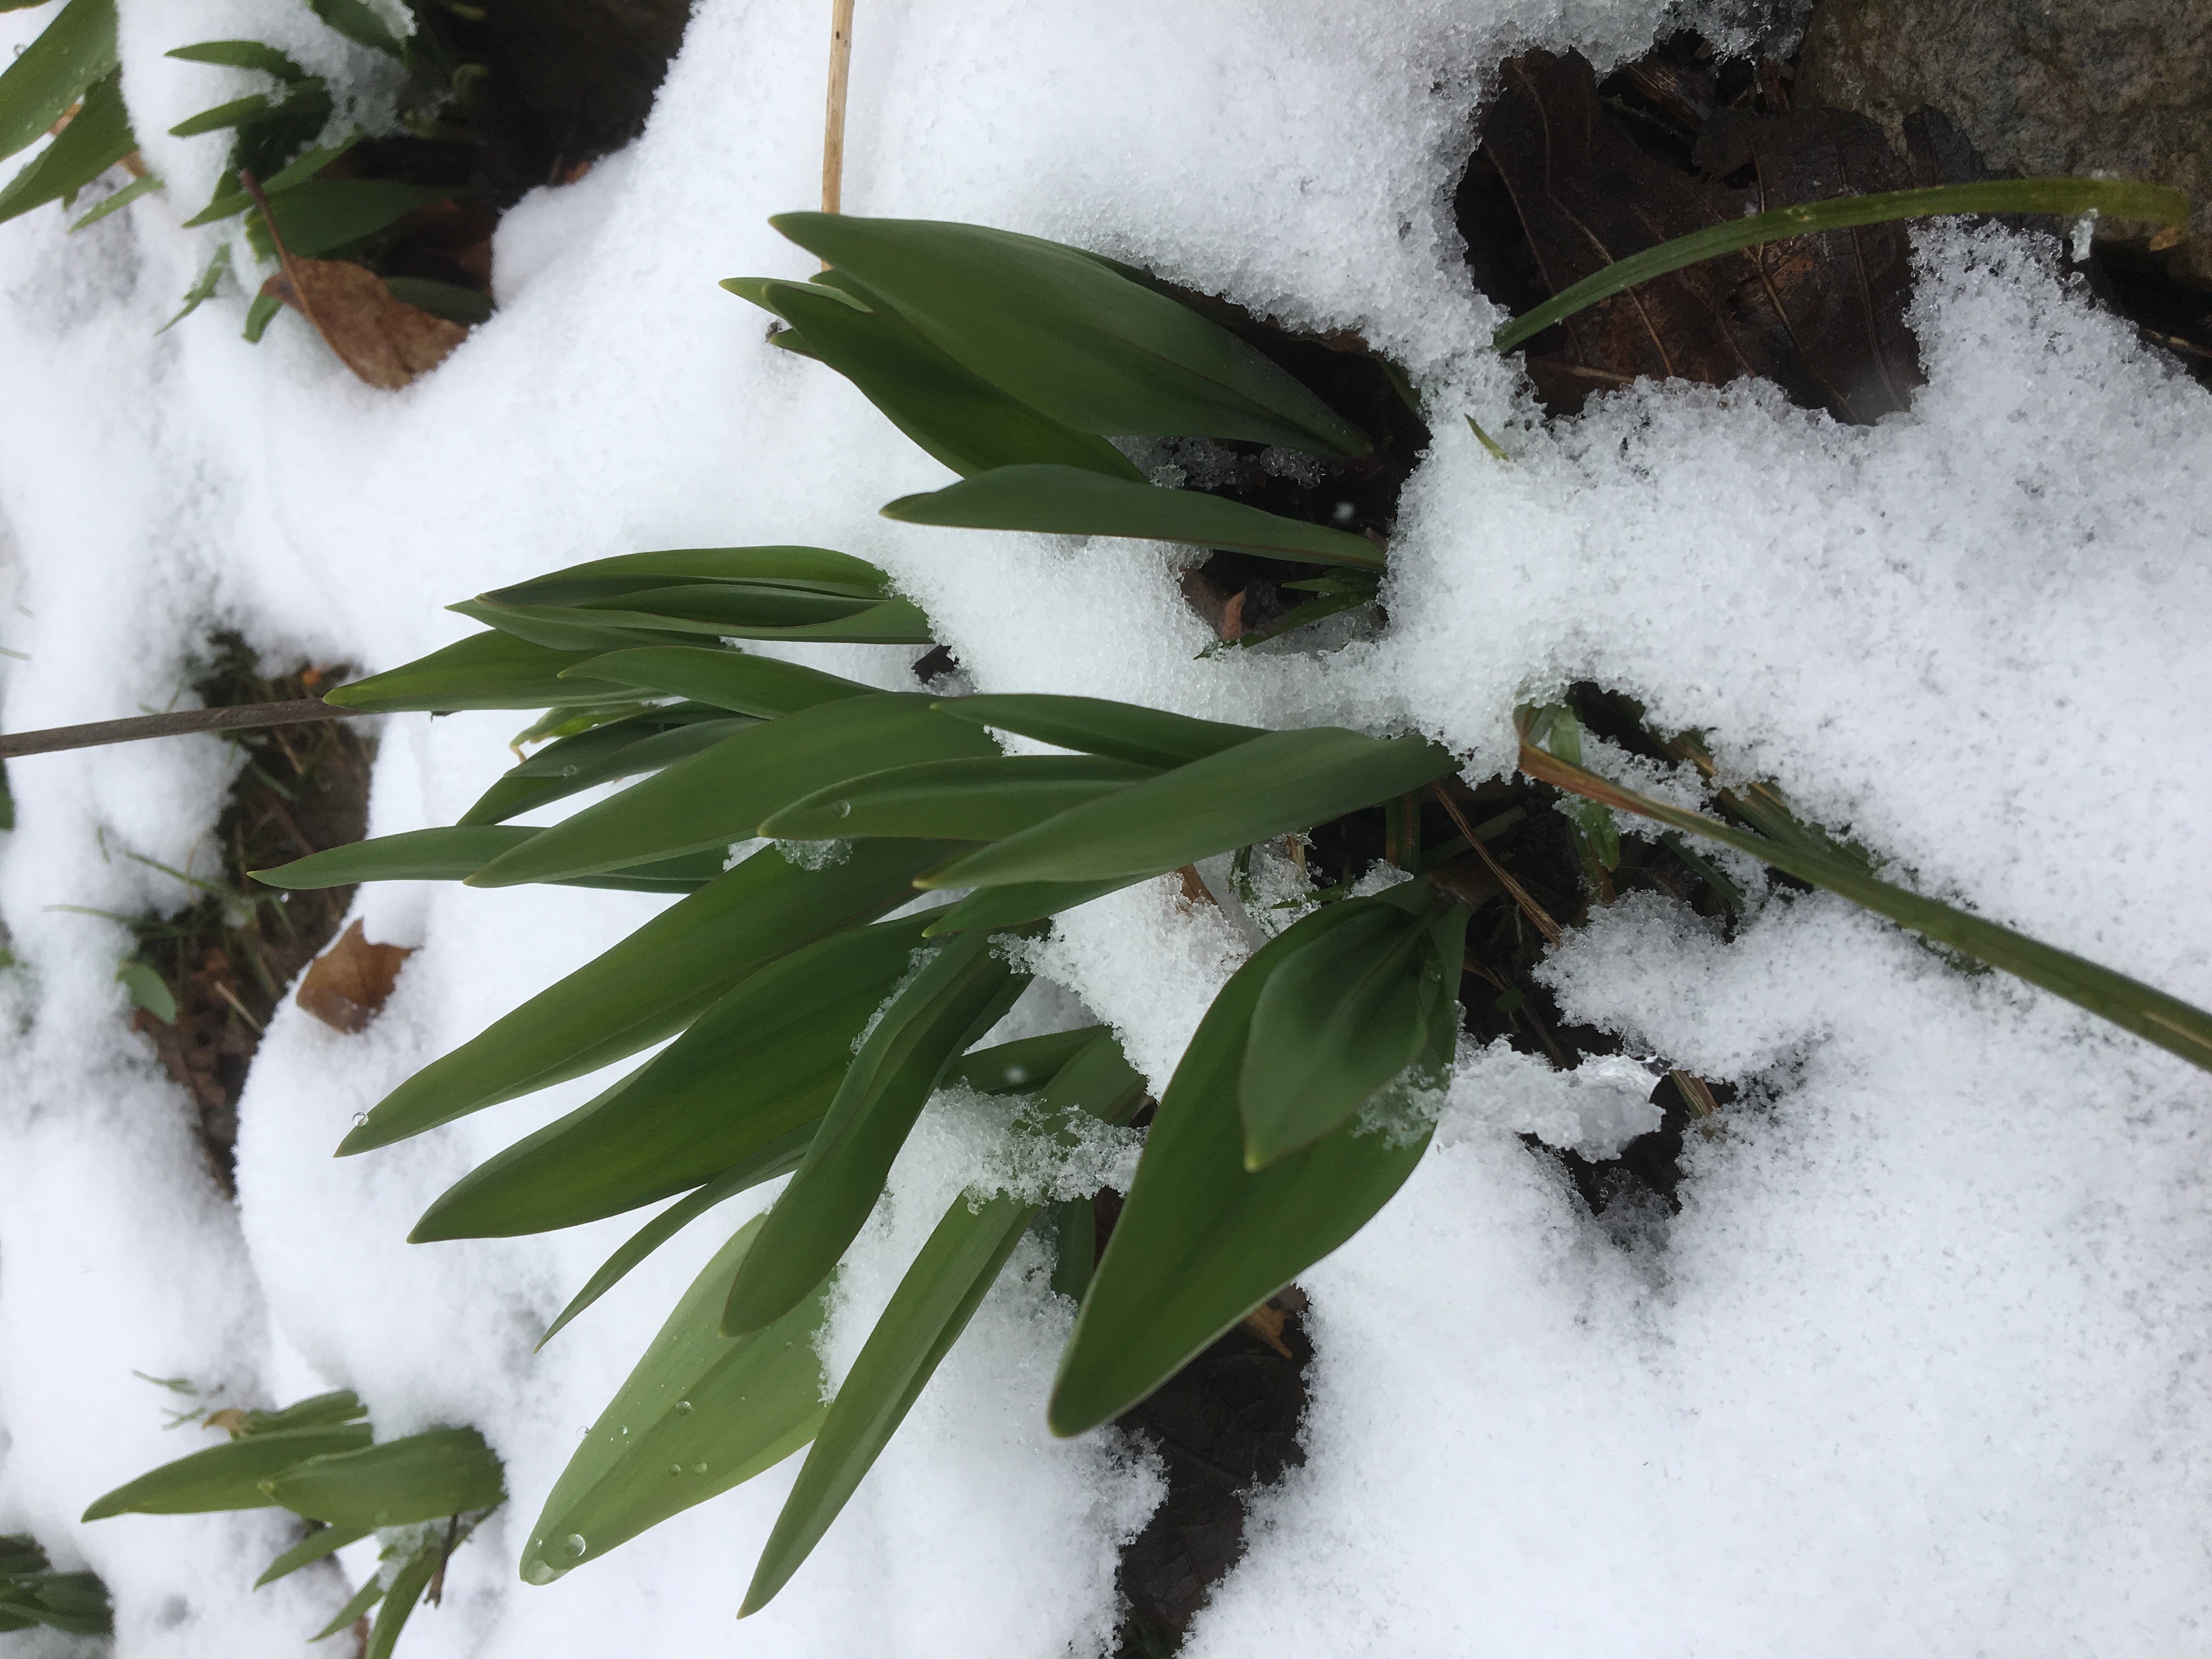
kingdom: Plantae
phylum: Tracheophyta
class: Liliopsida
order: Asparagales
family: Amaryllidaceae
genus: Allium
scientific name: Allium tricoccum
